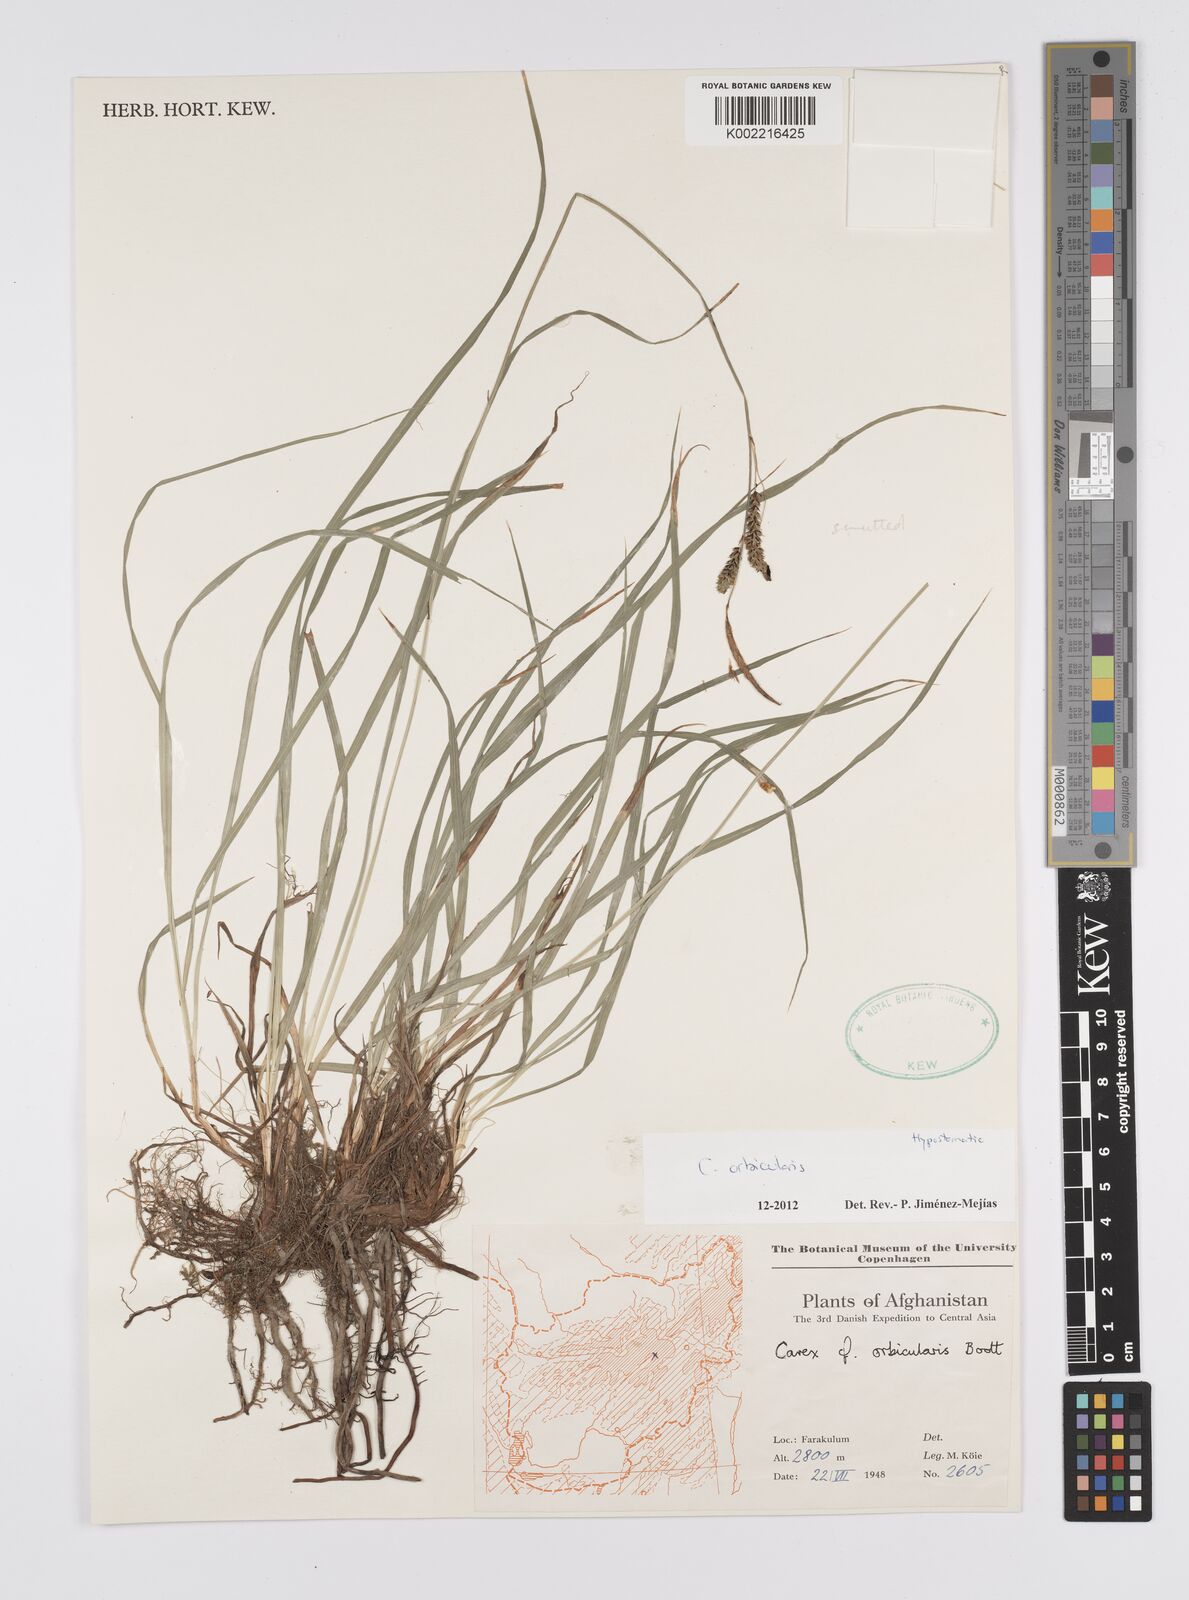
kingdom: Plantae
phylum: Tracheophyta
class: Liliopsida
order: Poales
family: Cyperaceae
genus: Carex
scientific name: Carex orbicularis
